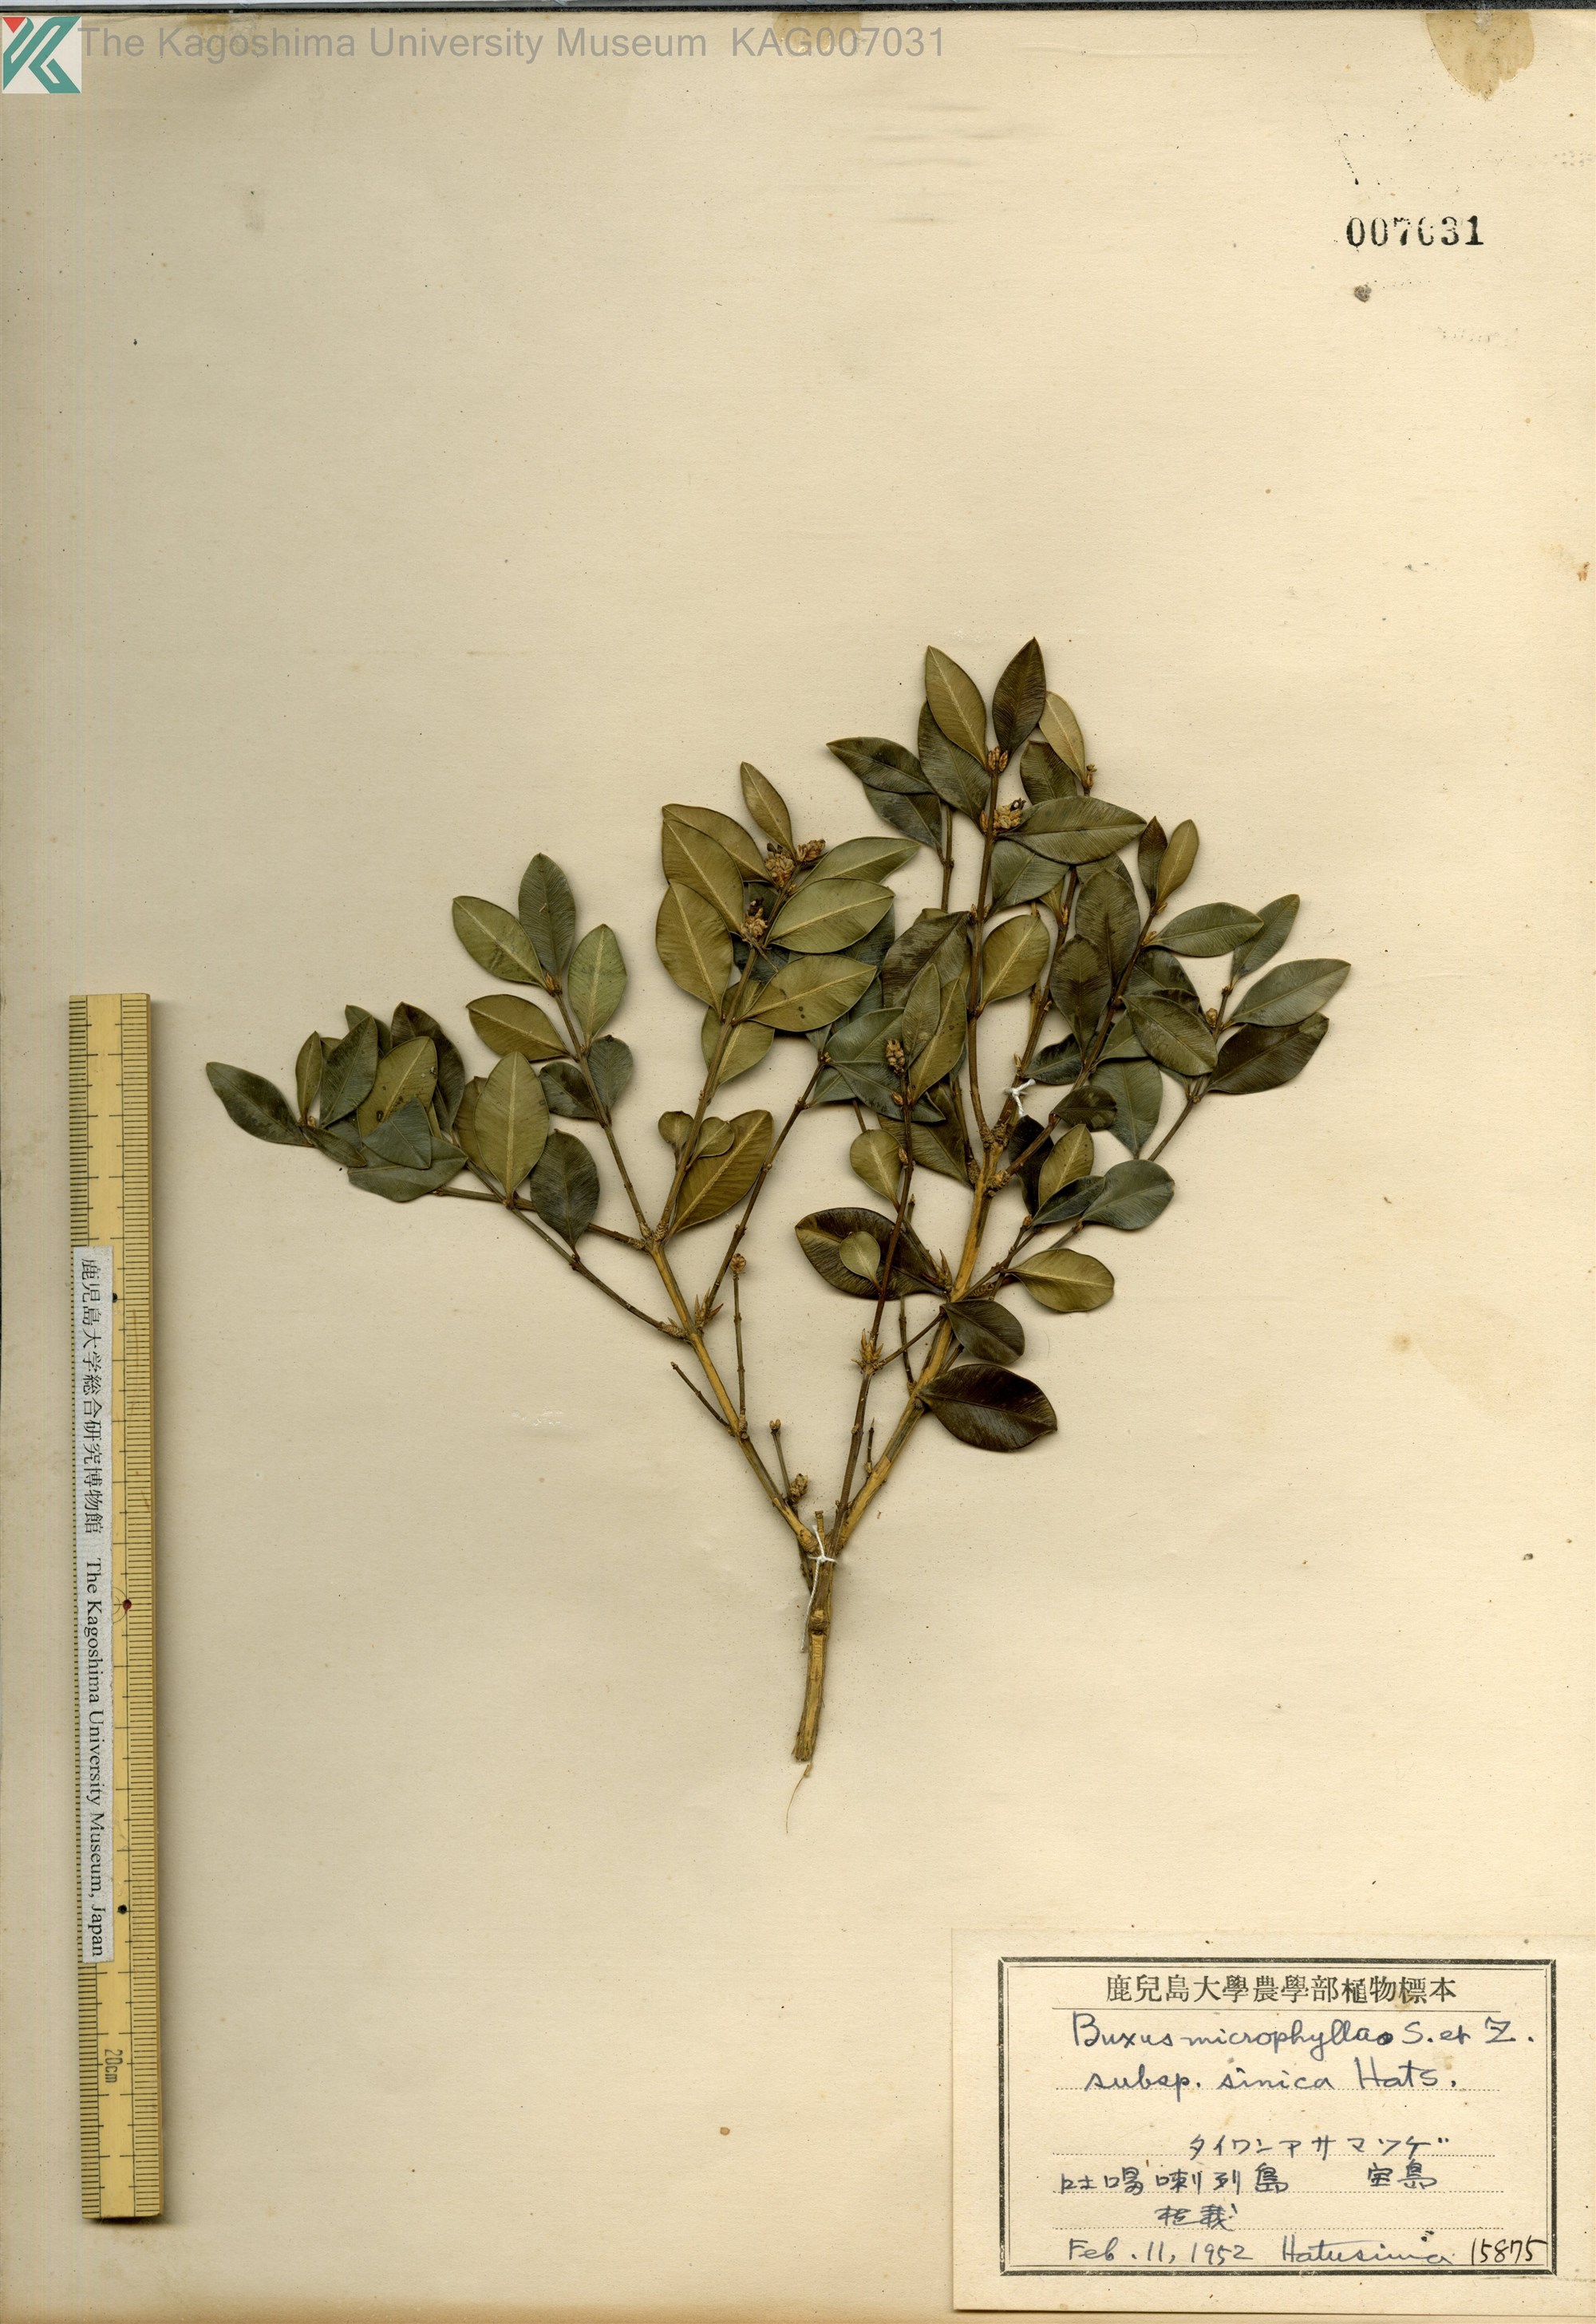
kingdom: Plantae
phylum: Tracheophyta
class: Magnoliopsida
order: Buxales
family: Buxaceae
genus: Buxus
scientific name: Buxus sinica
